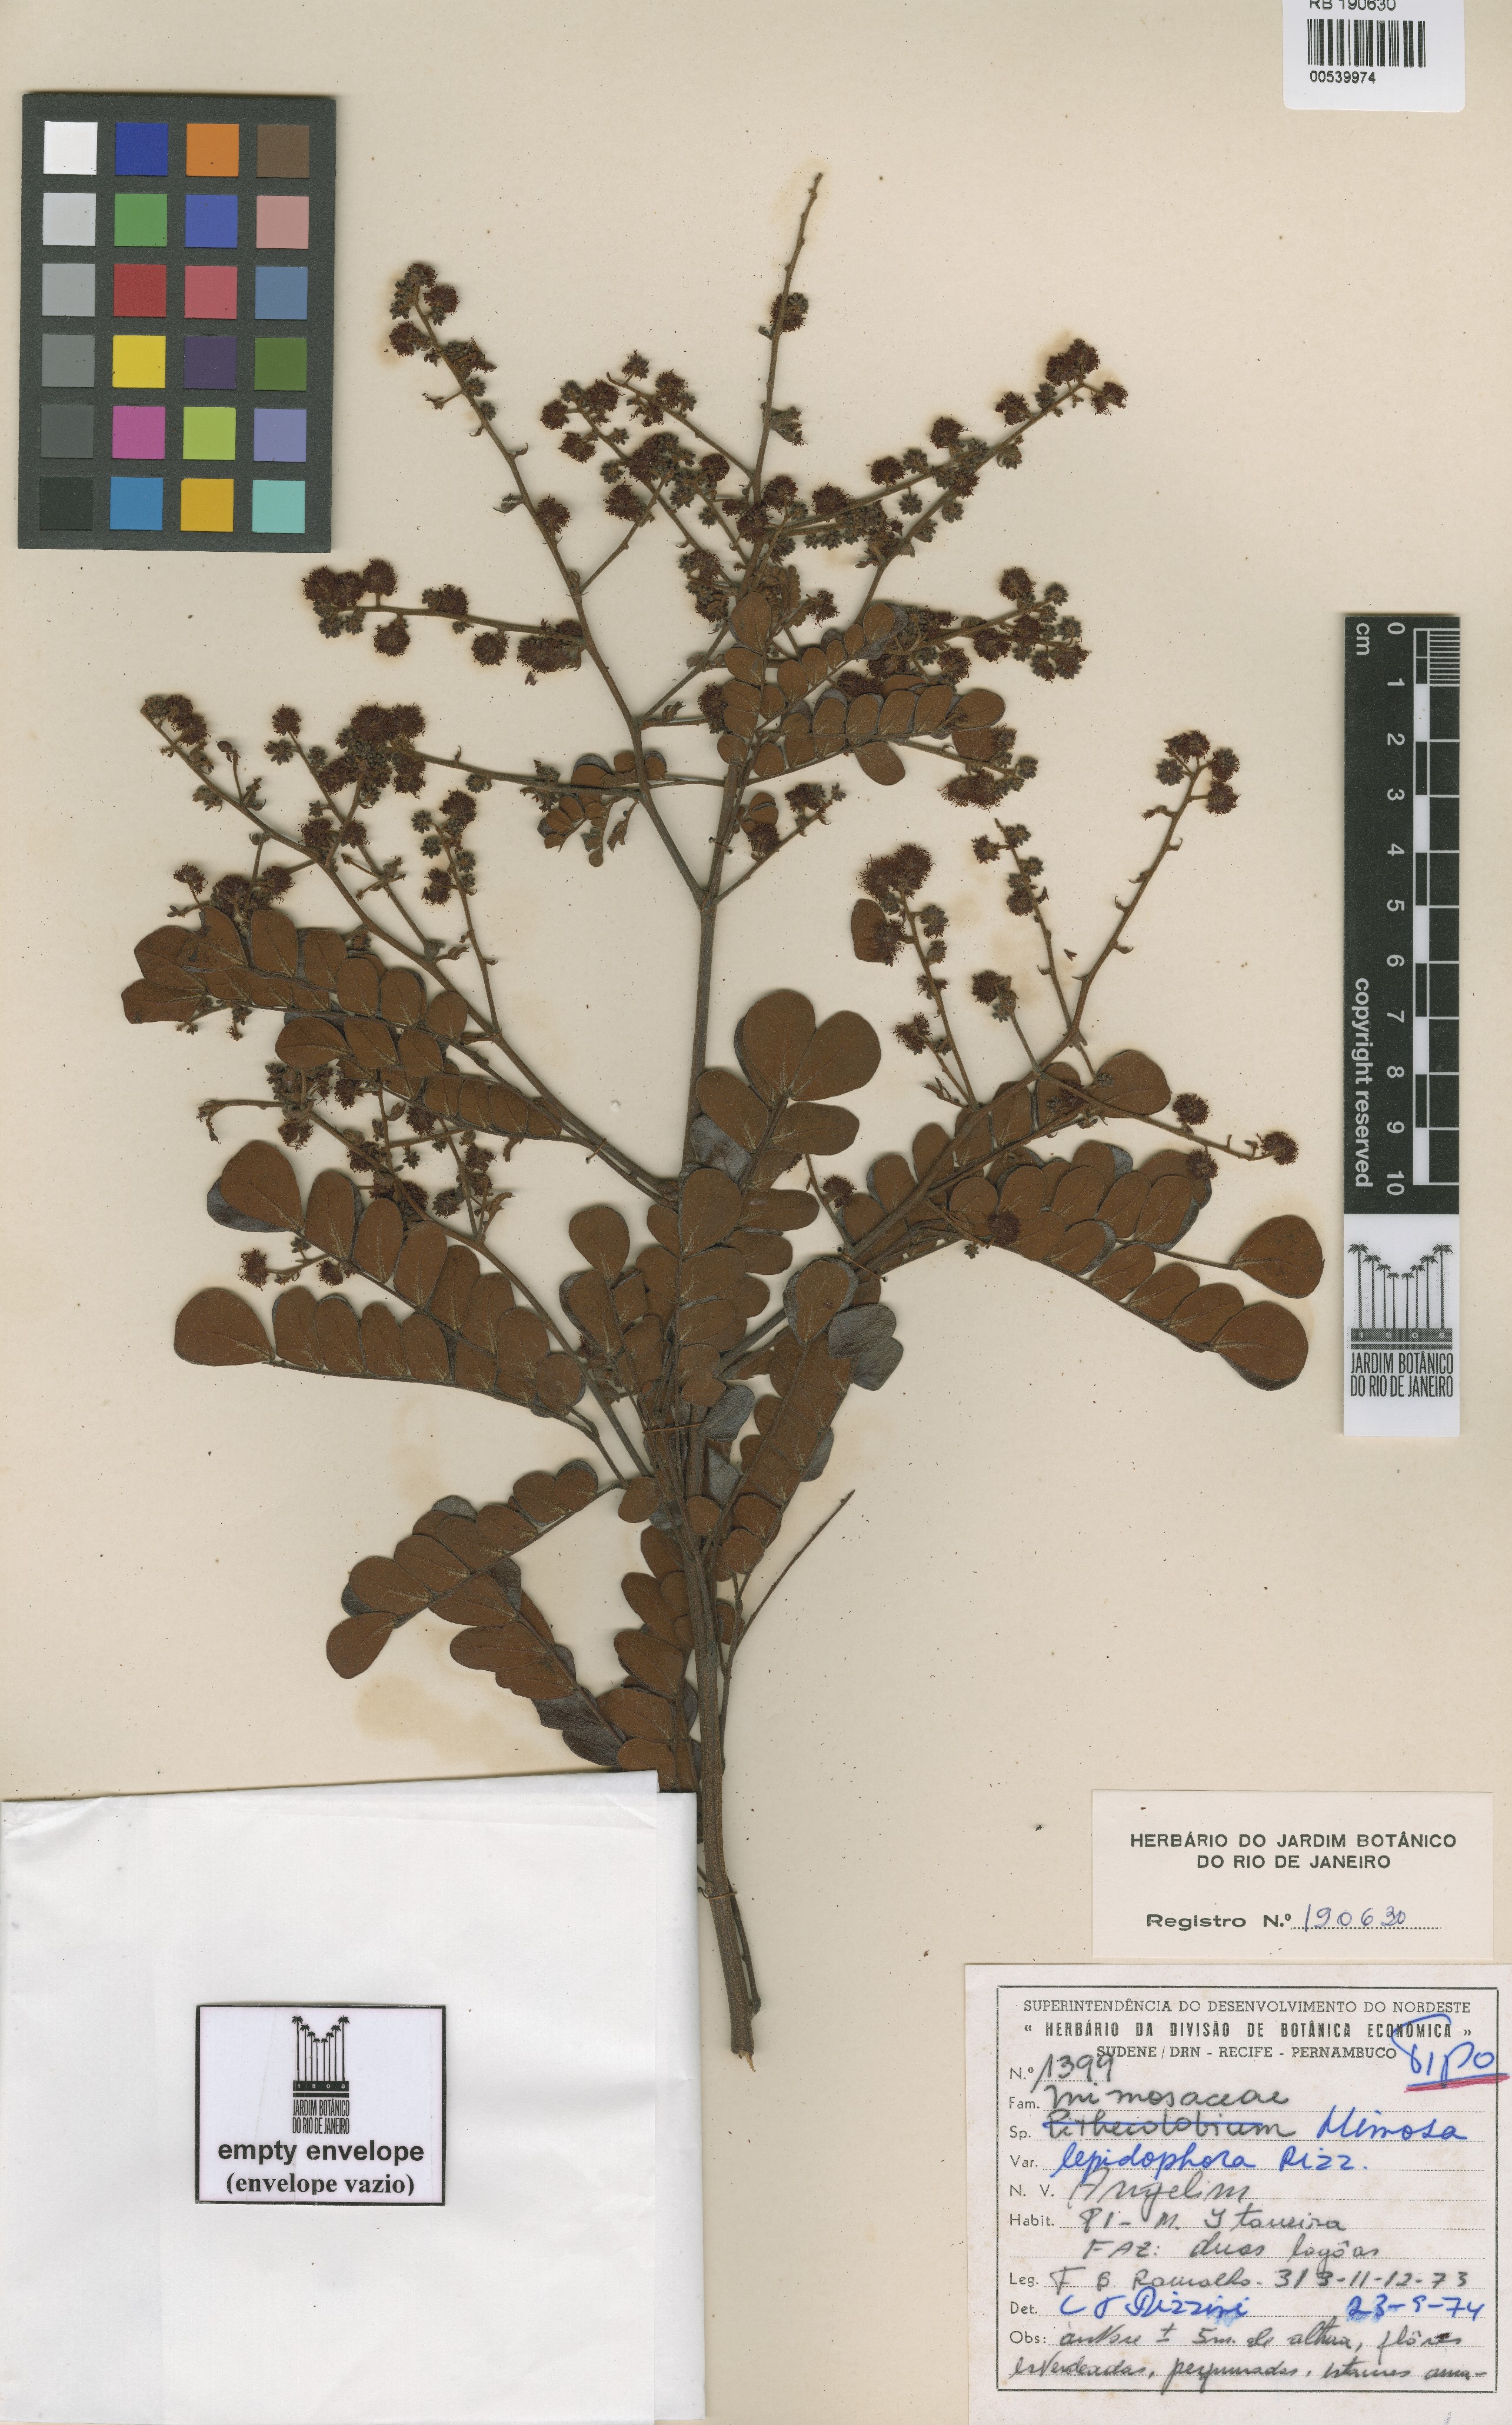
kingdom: Plantae
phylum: Tracheophyta
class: Magnoliopsida
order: Fabales
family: Fabaceae
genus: Mimosa
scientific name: Mimosa lepidophora
